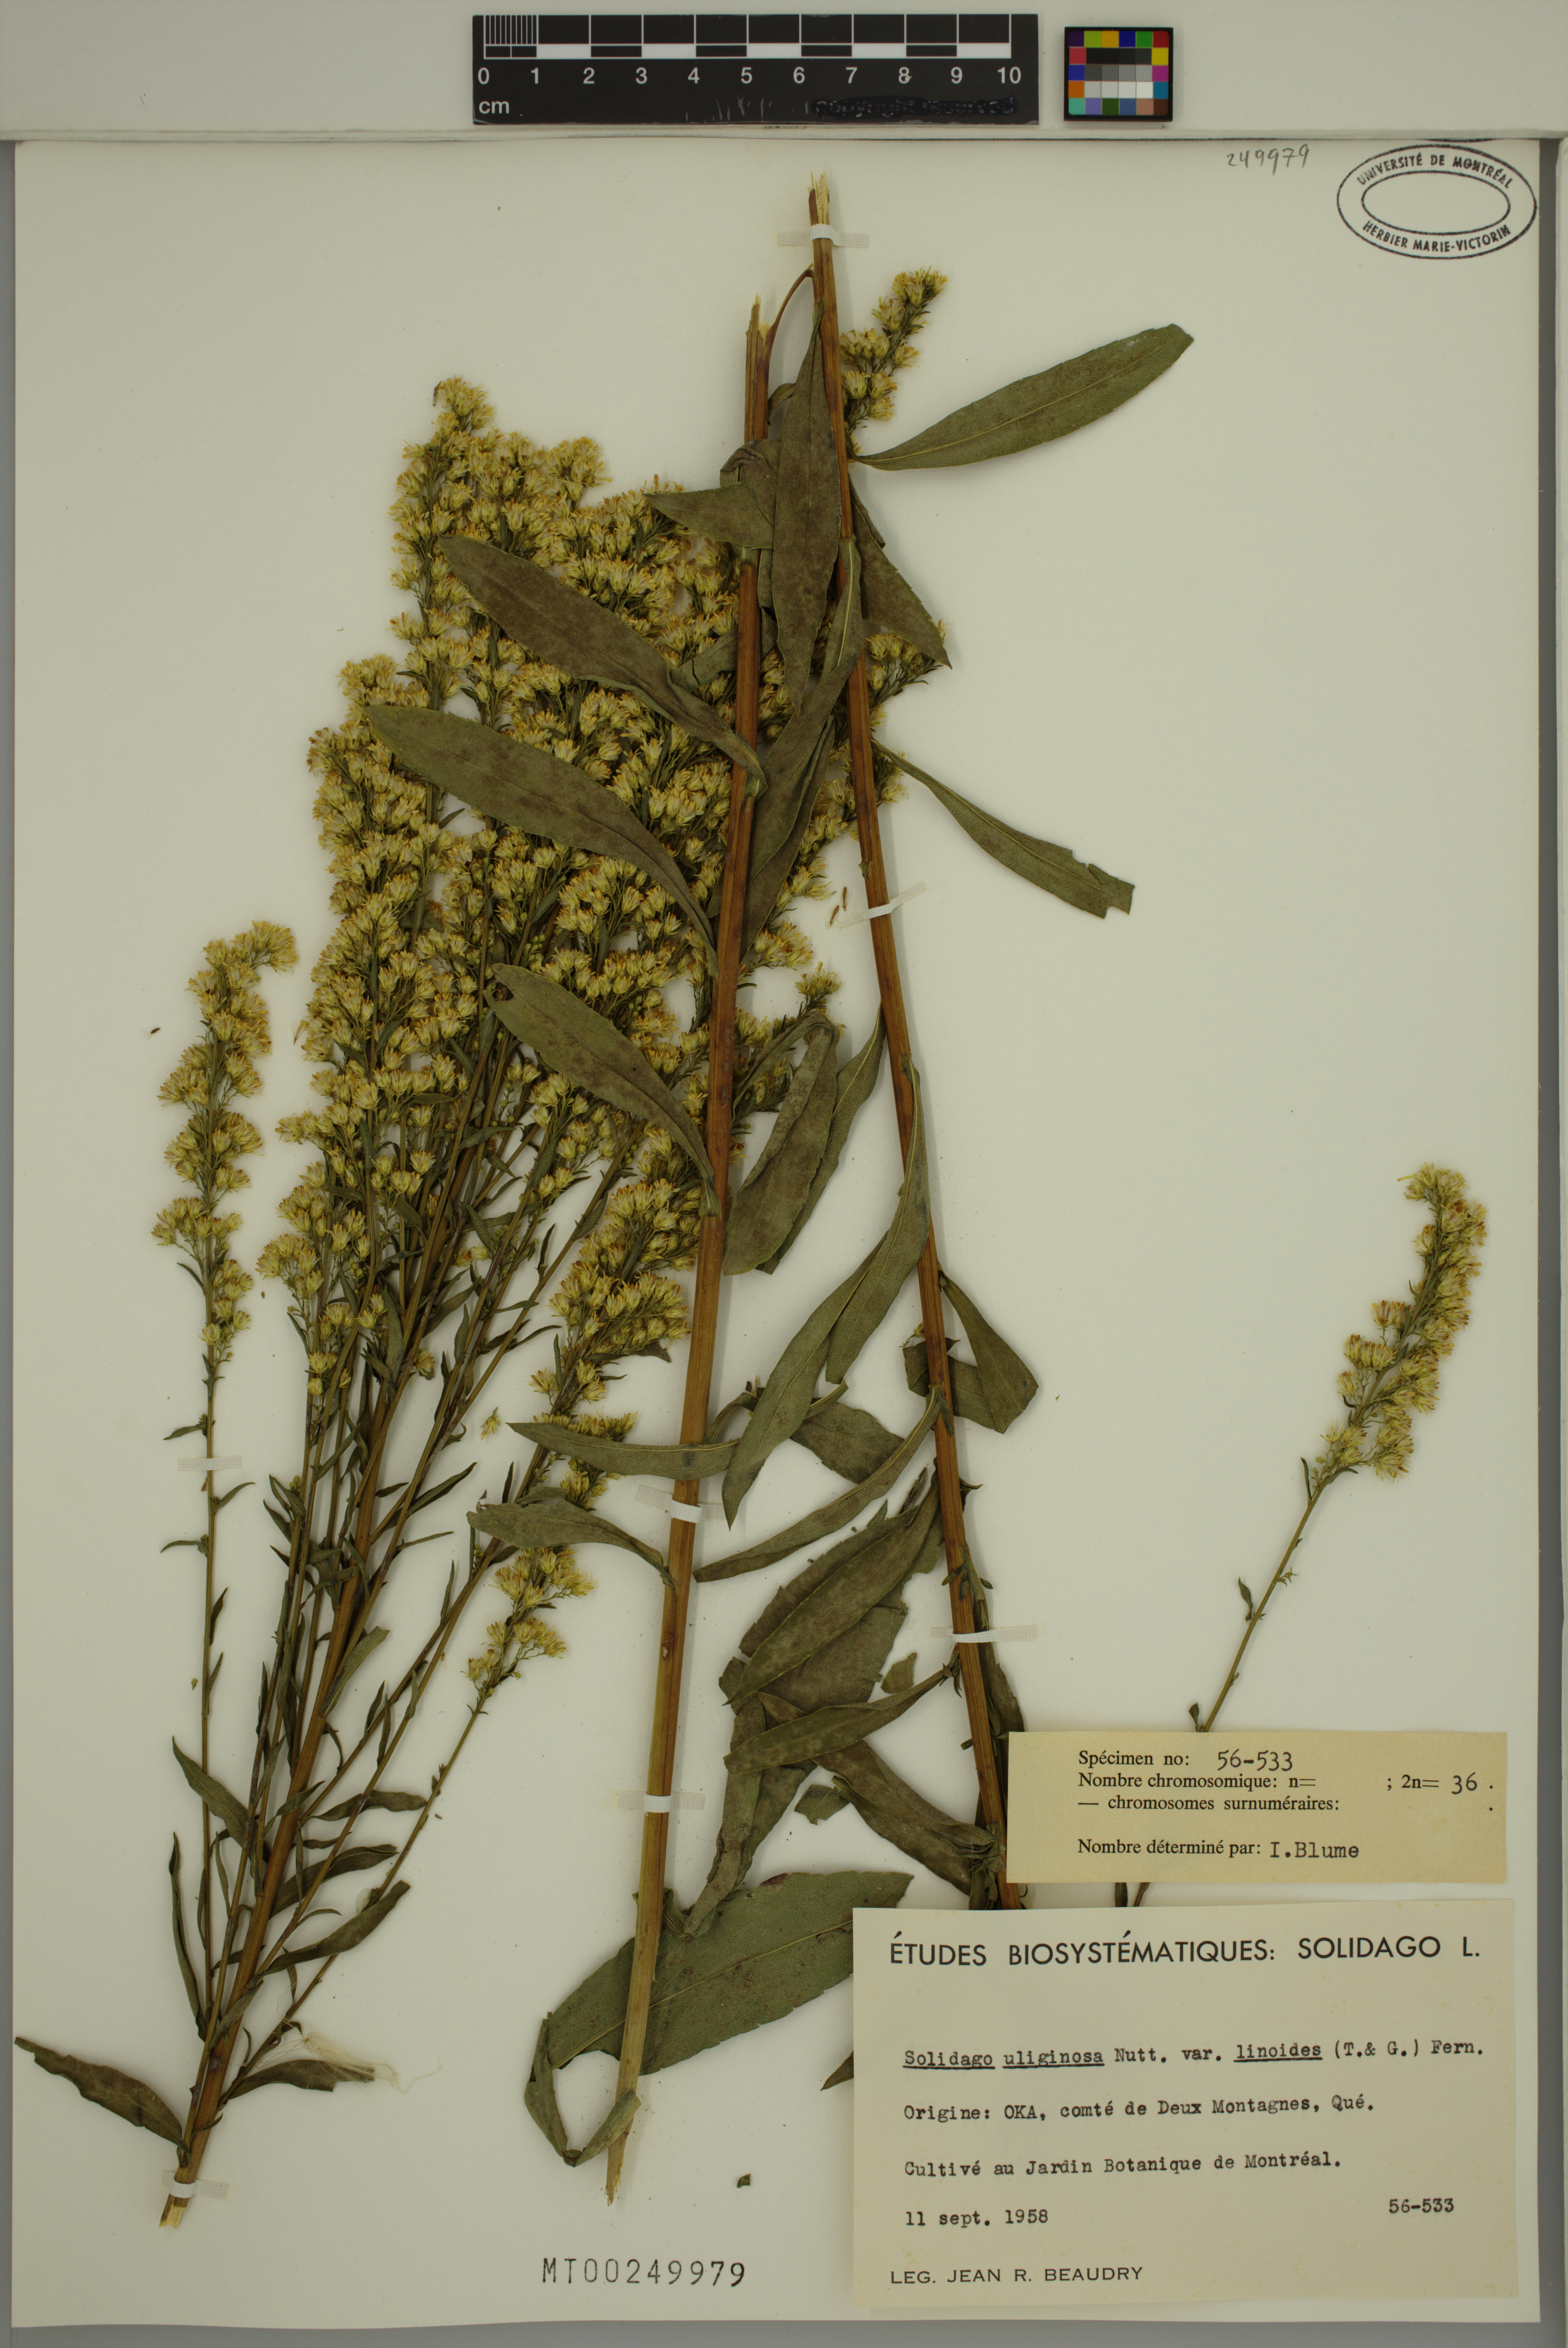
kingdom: Plantae
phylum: Tracheophyta
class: Magnoliopsida
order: Asterales
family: Asteraceae
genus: Solidago
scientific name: Solidago uliginosa
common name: Bog goldenrod
